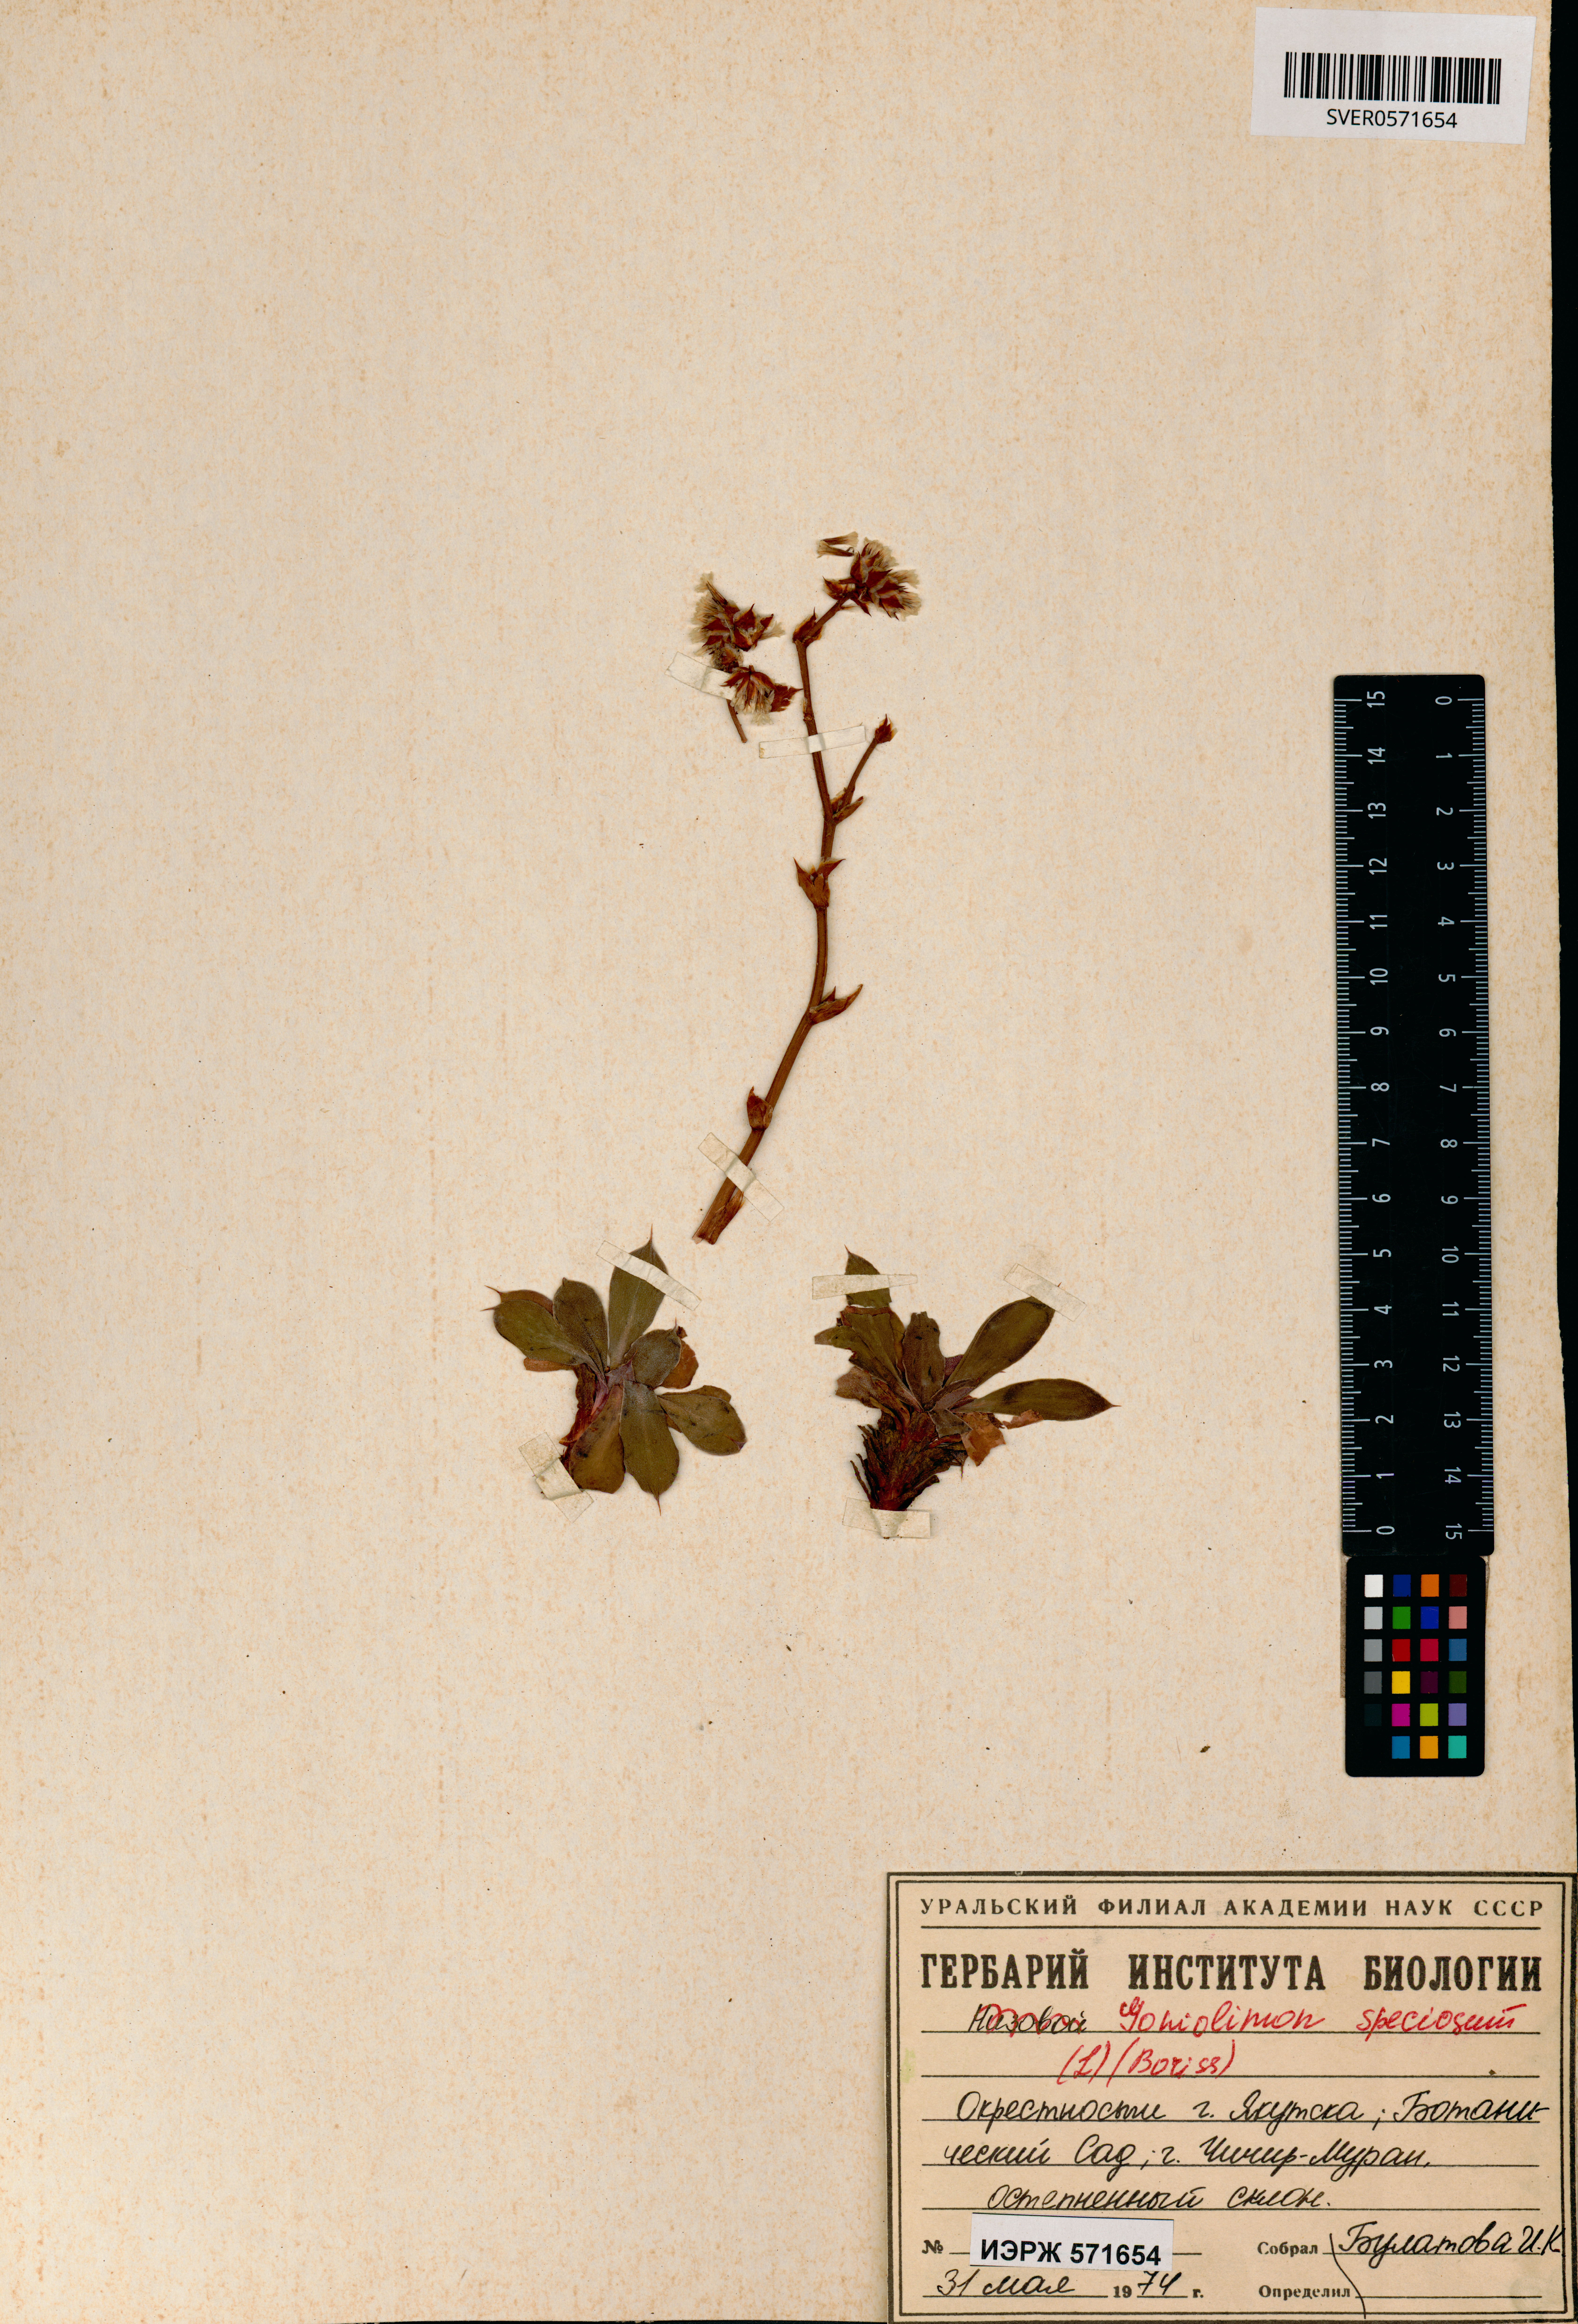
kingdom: Plantae
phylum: Tracheophyta
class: Magnoliopsida
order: Caryophyllales
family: Plumbaginaceae
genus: Goniolimon
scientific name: Goniolimon speciosum
